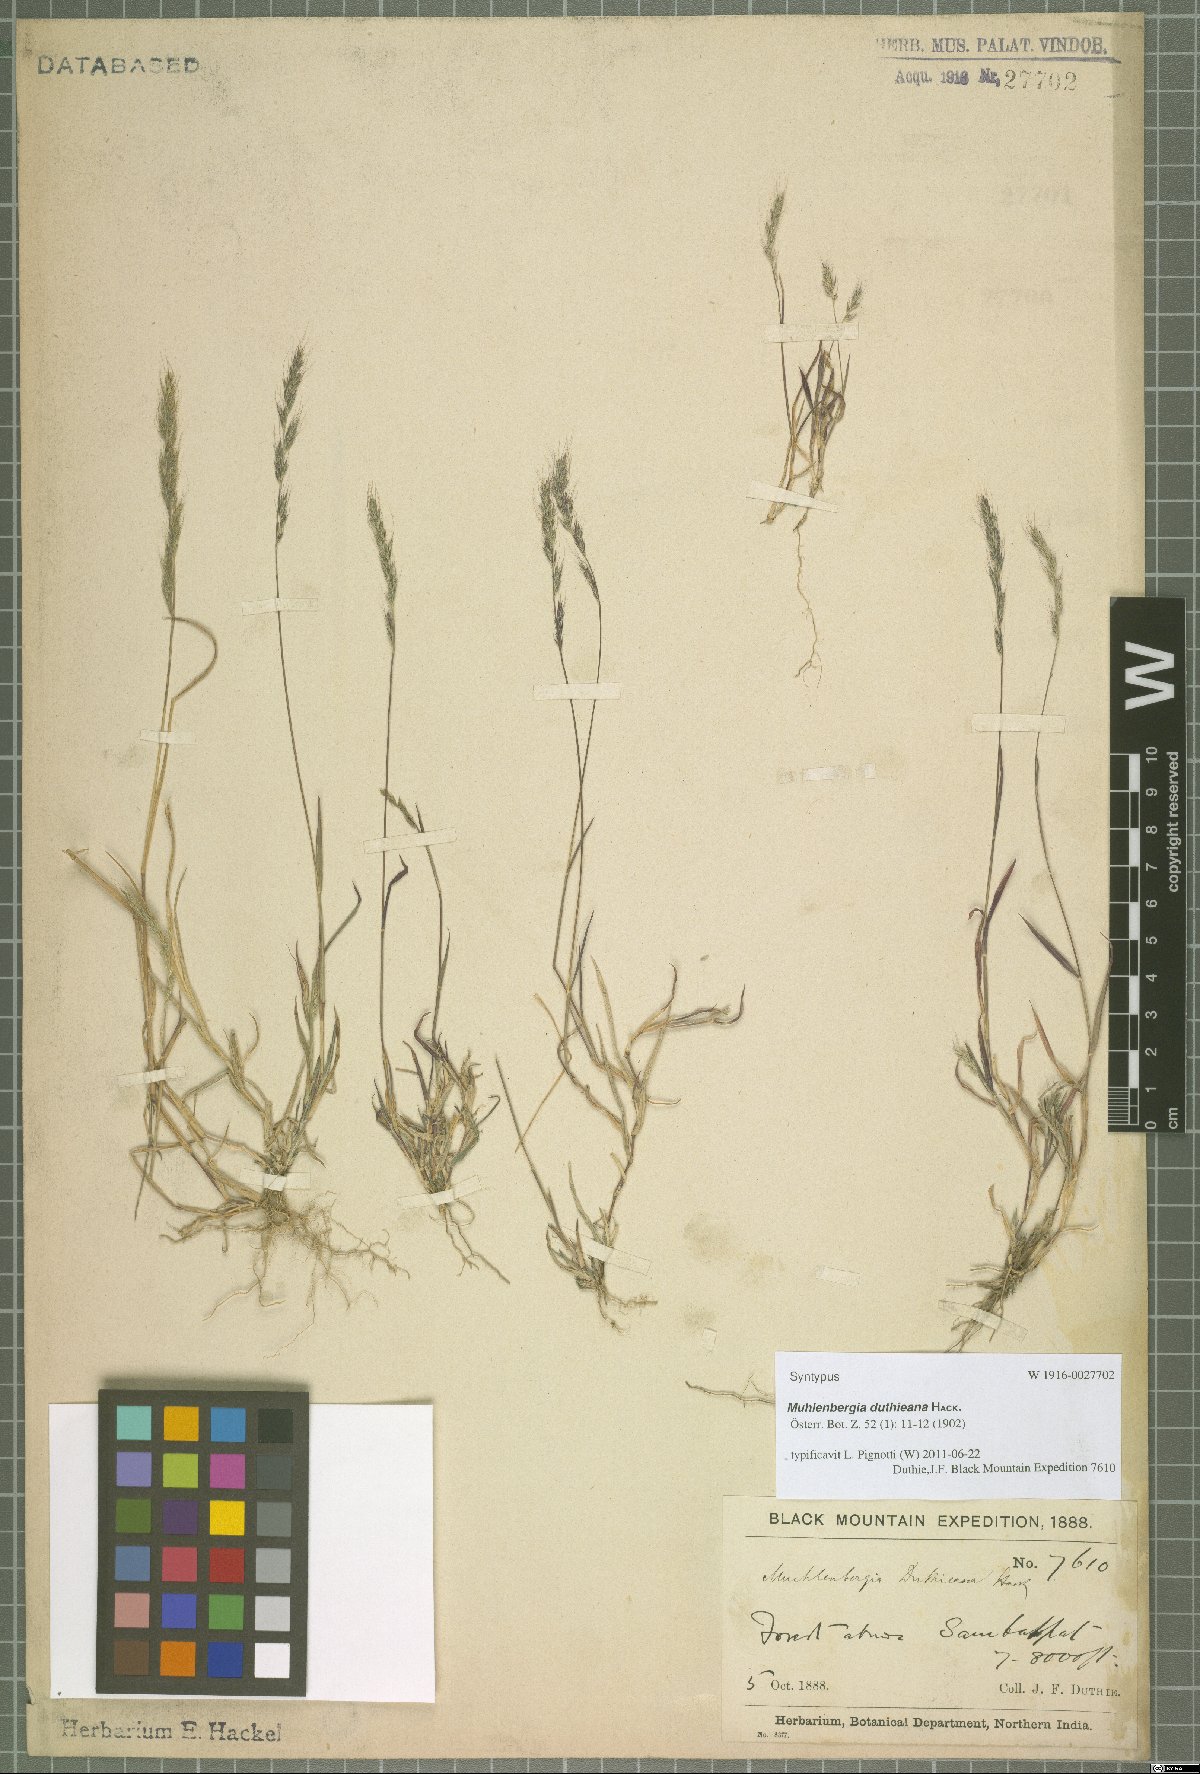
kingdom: Plantae
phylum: Tracheophyta
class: Liliopsida
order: Poales
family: Poaceae
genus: Muhlenbergia
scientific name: Muhlenbergia duthieana
